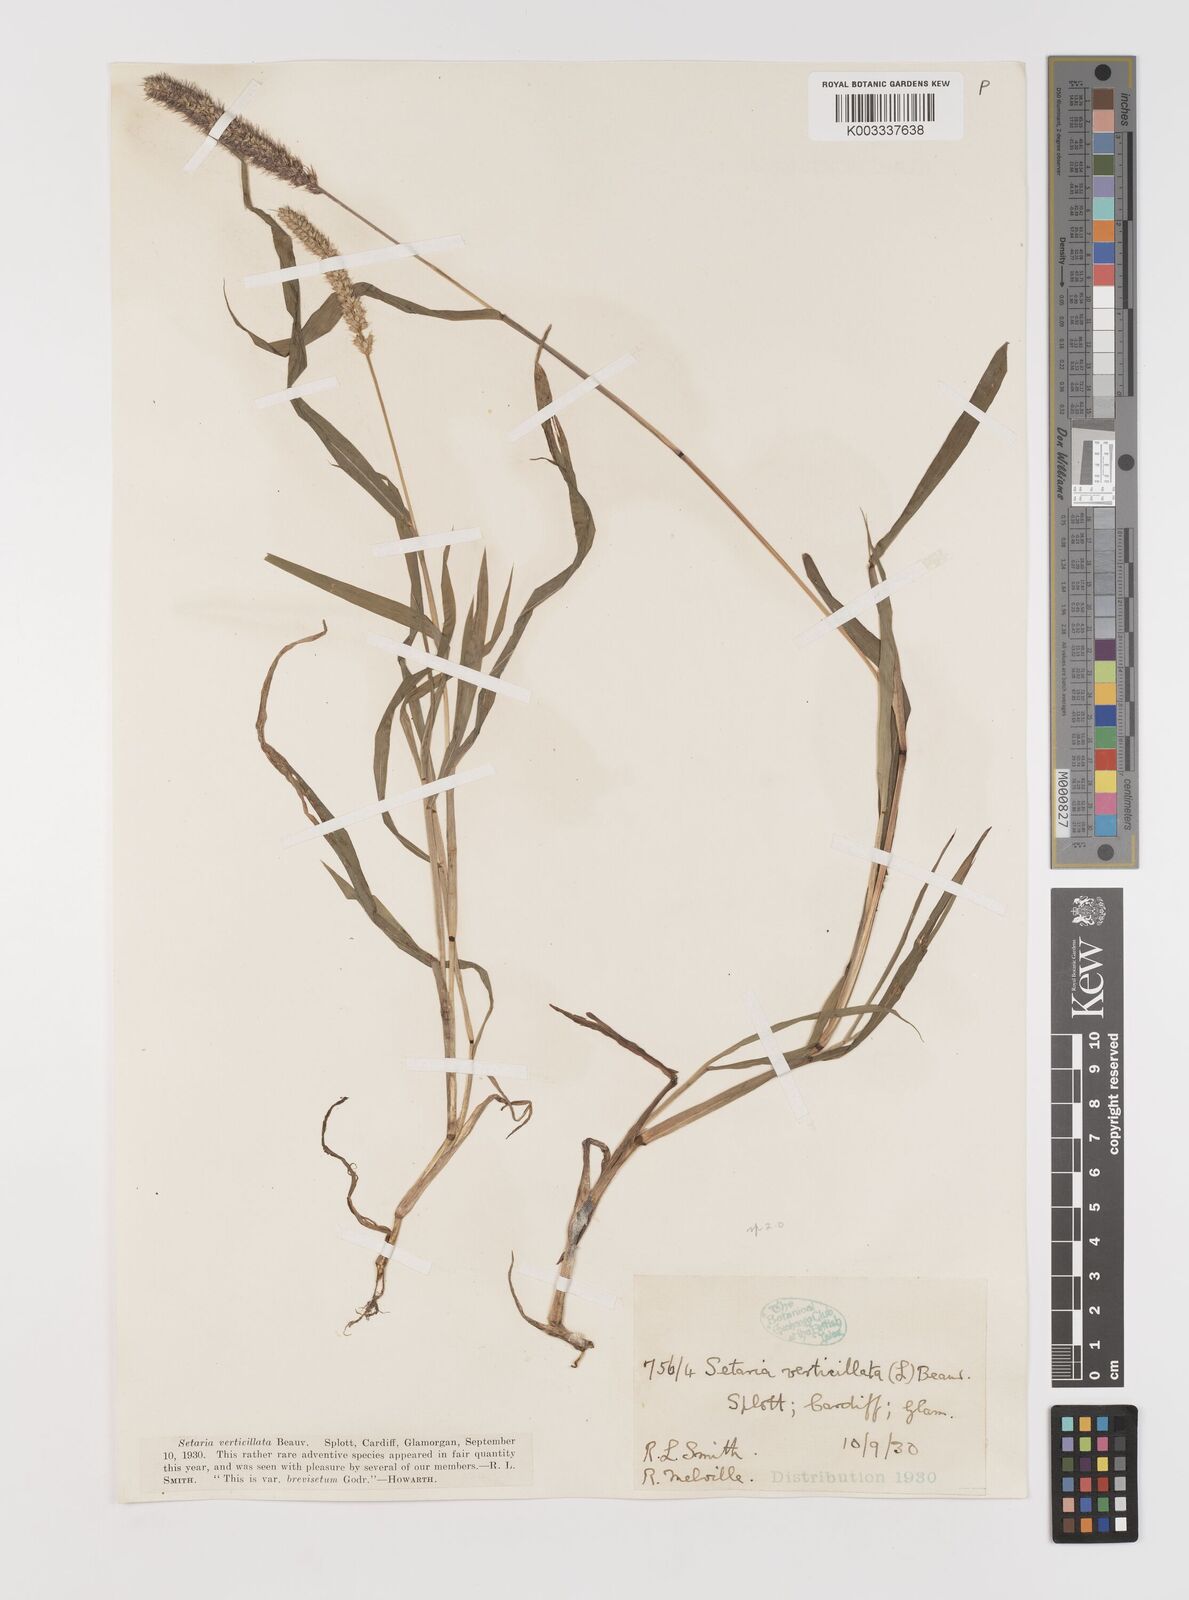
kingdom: Plantae
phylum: Tracheophyta
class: Liliopsida
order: Poales
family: Poaceae
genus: Setaria
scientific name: Setaria verticillata
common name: Hooked bristlegrass
